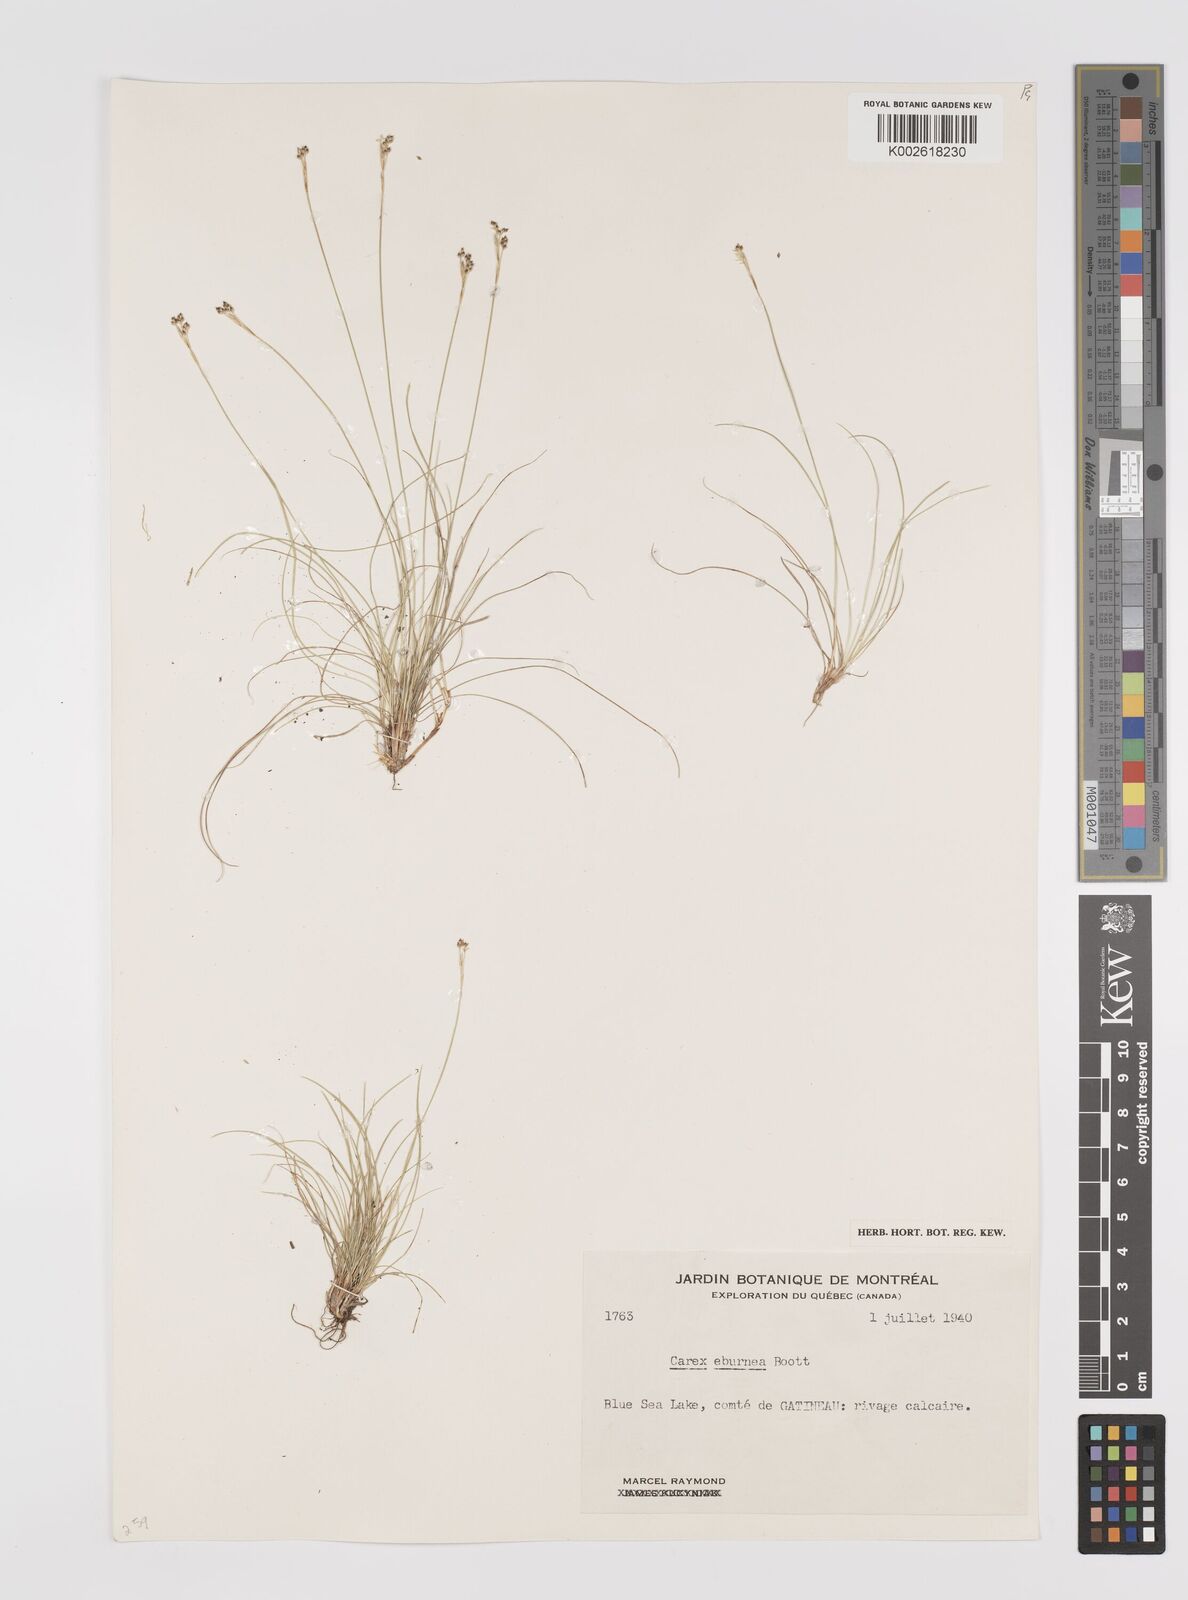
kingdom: Plantae
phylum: Tracheophyta
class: Liliopsida
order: Poales
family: Cyperaceae
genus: Carex
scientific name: Carex eburnea
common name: Bristle-leaved sedge
